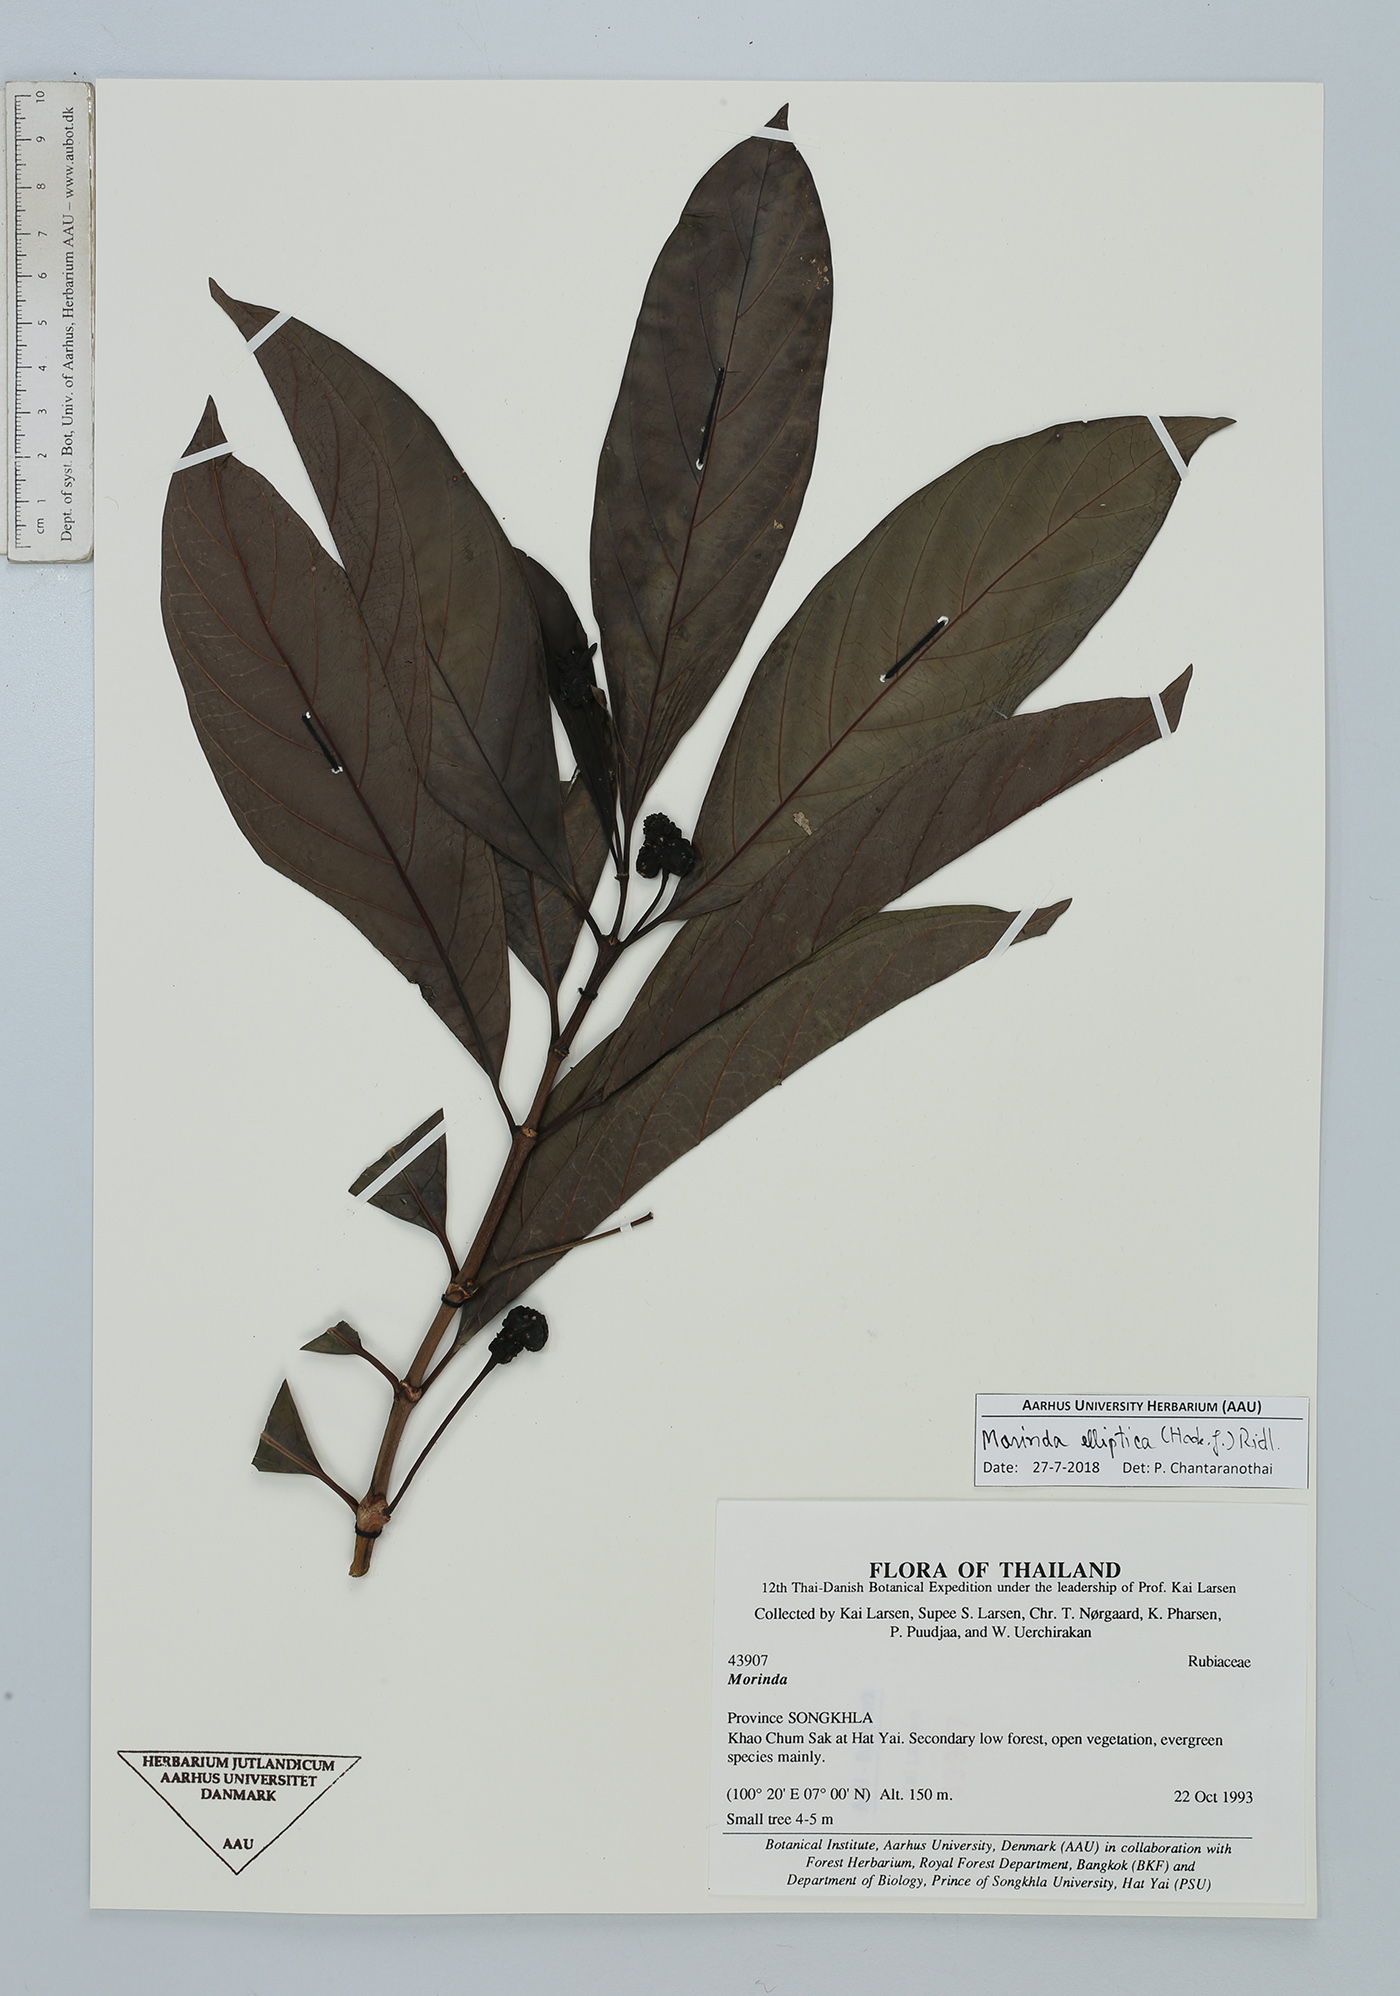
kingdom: Plantae
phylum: Tracheophyta
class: Magnoliopsida
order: Gentianales
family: Rubiaceae
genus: Morinda
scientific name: Morinda elliptica
